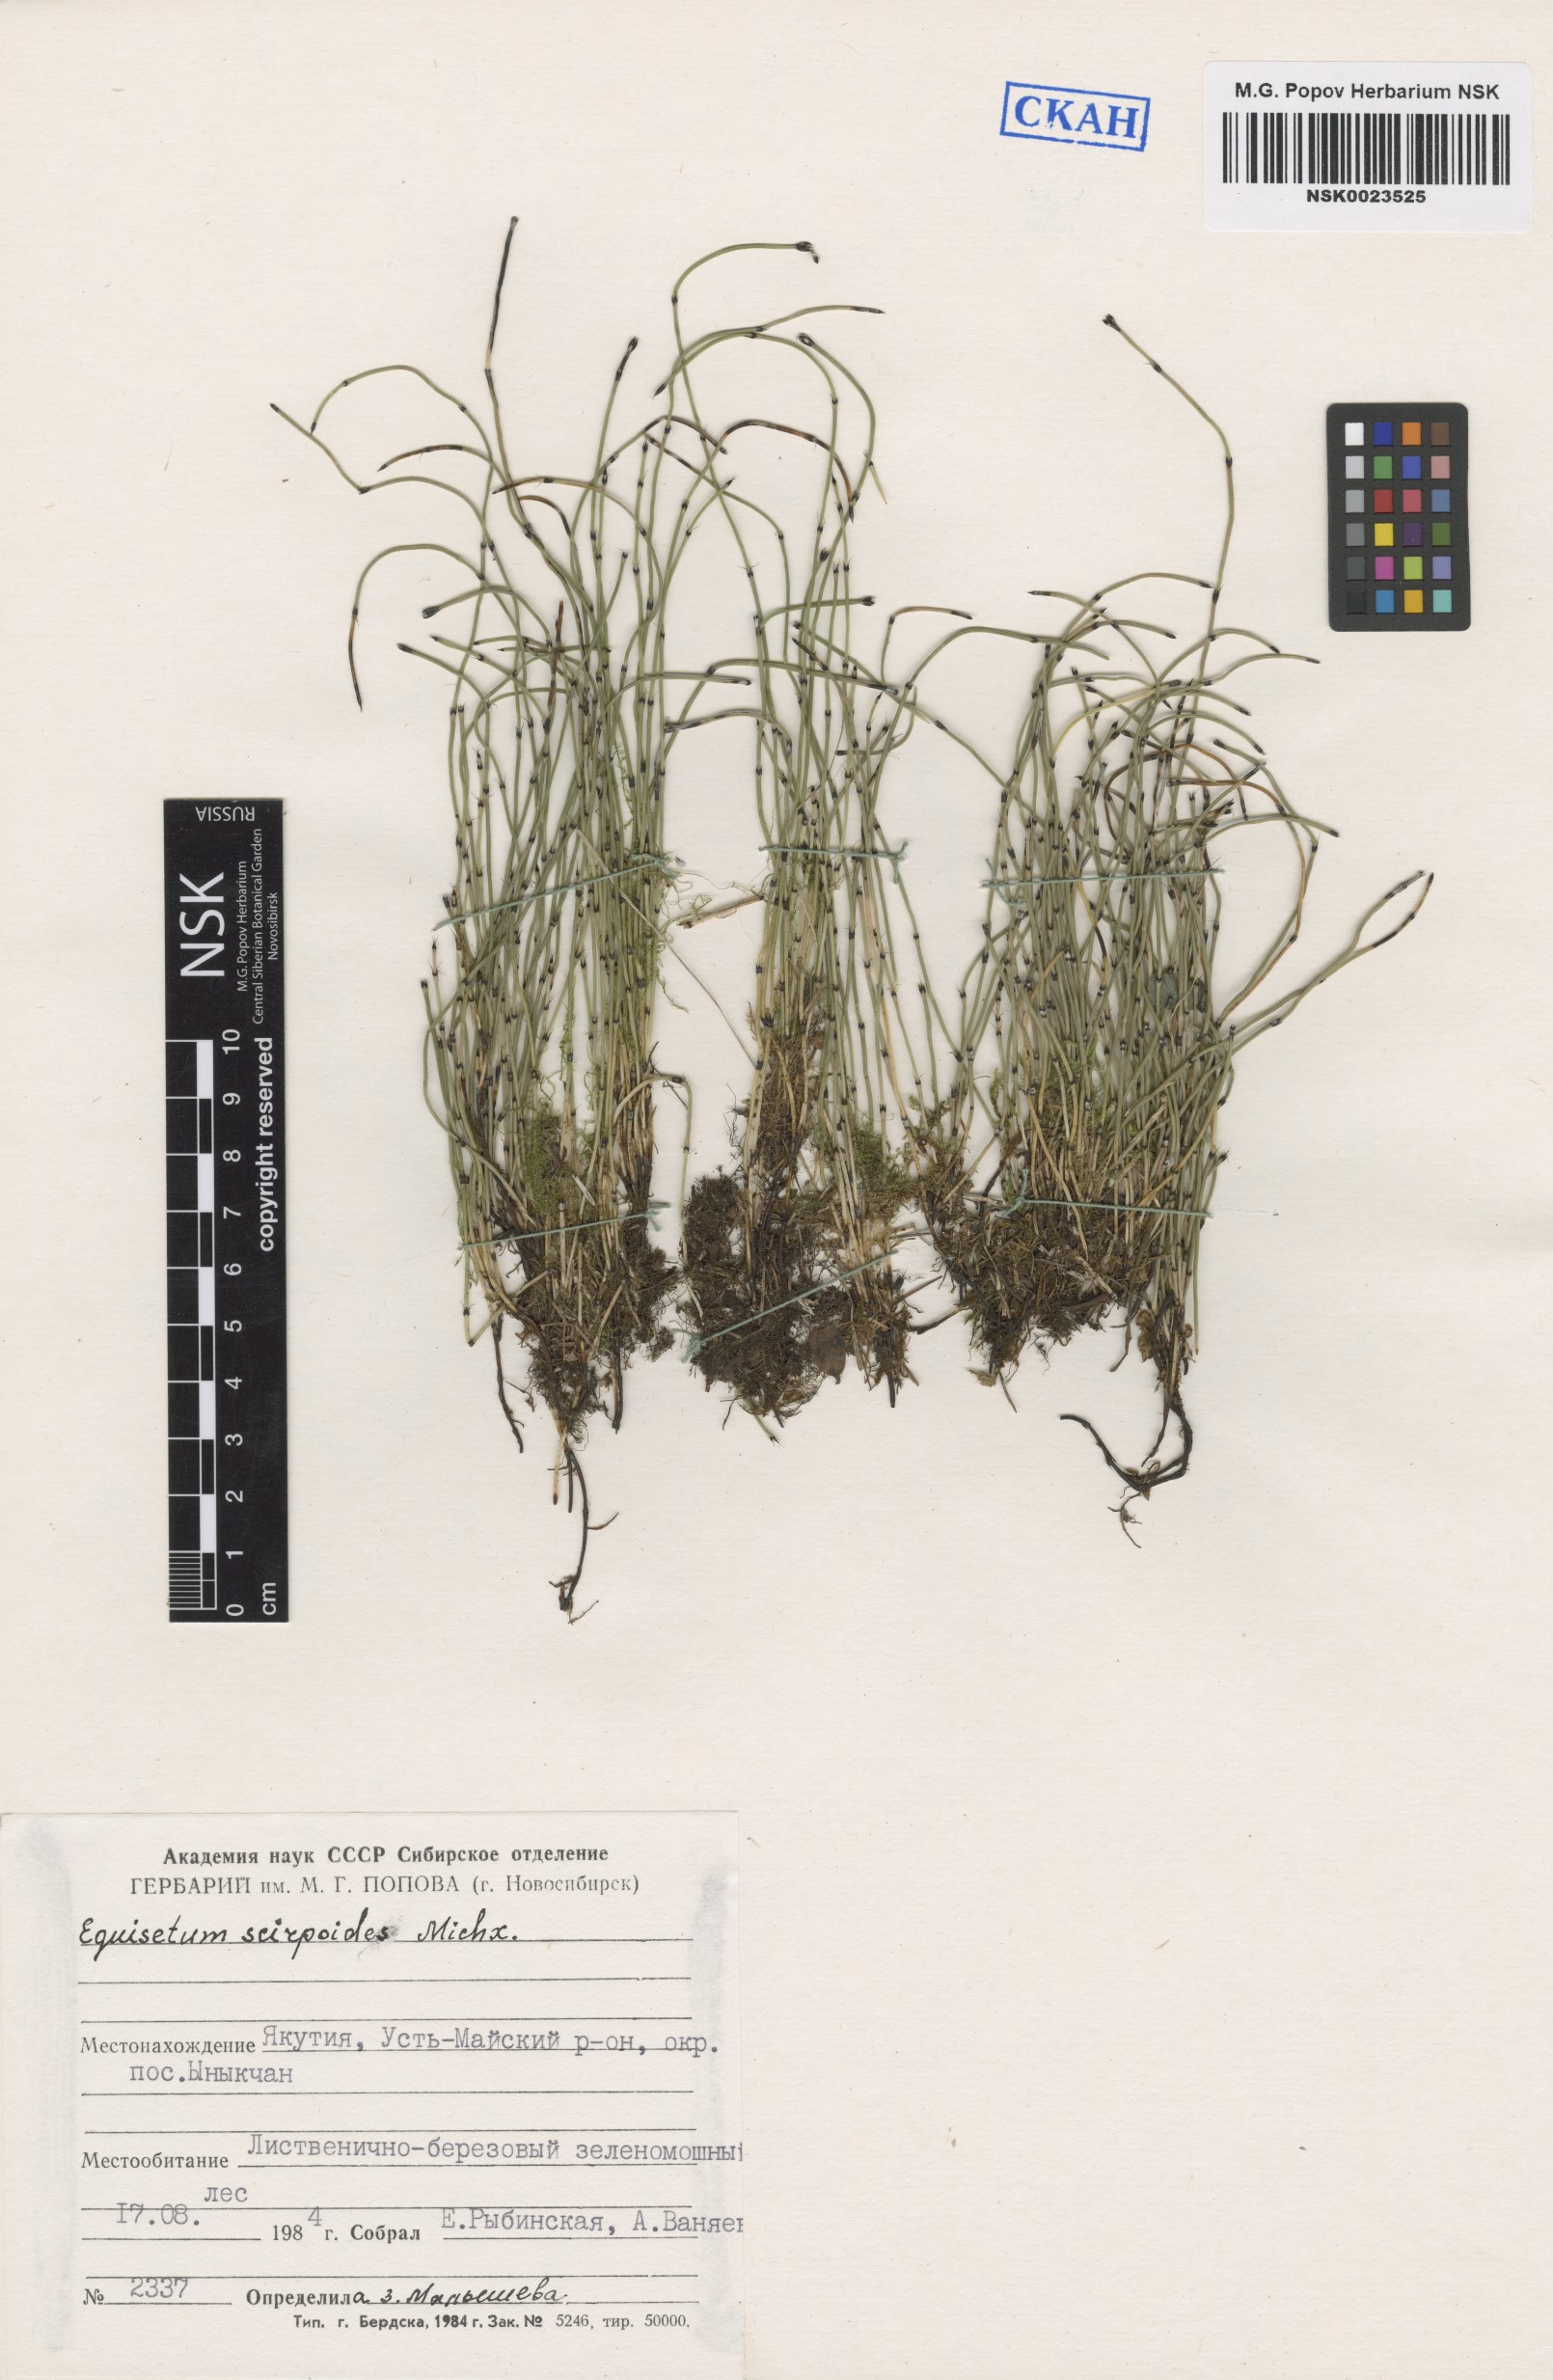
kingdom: Plantae
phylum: Tracheophyta
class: Polypodiopsida
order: Equisetales
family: Equisetaceae
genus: Equisetum
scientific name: Equisetum scirpoides
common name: Delicate horsetail
